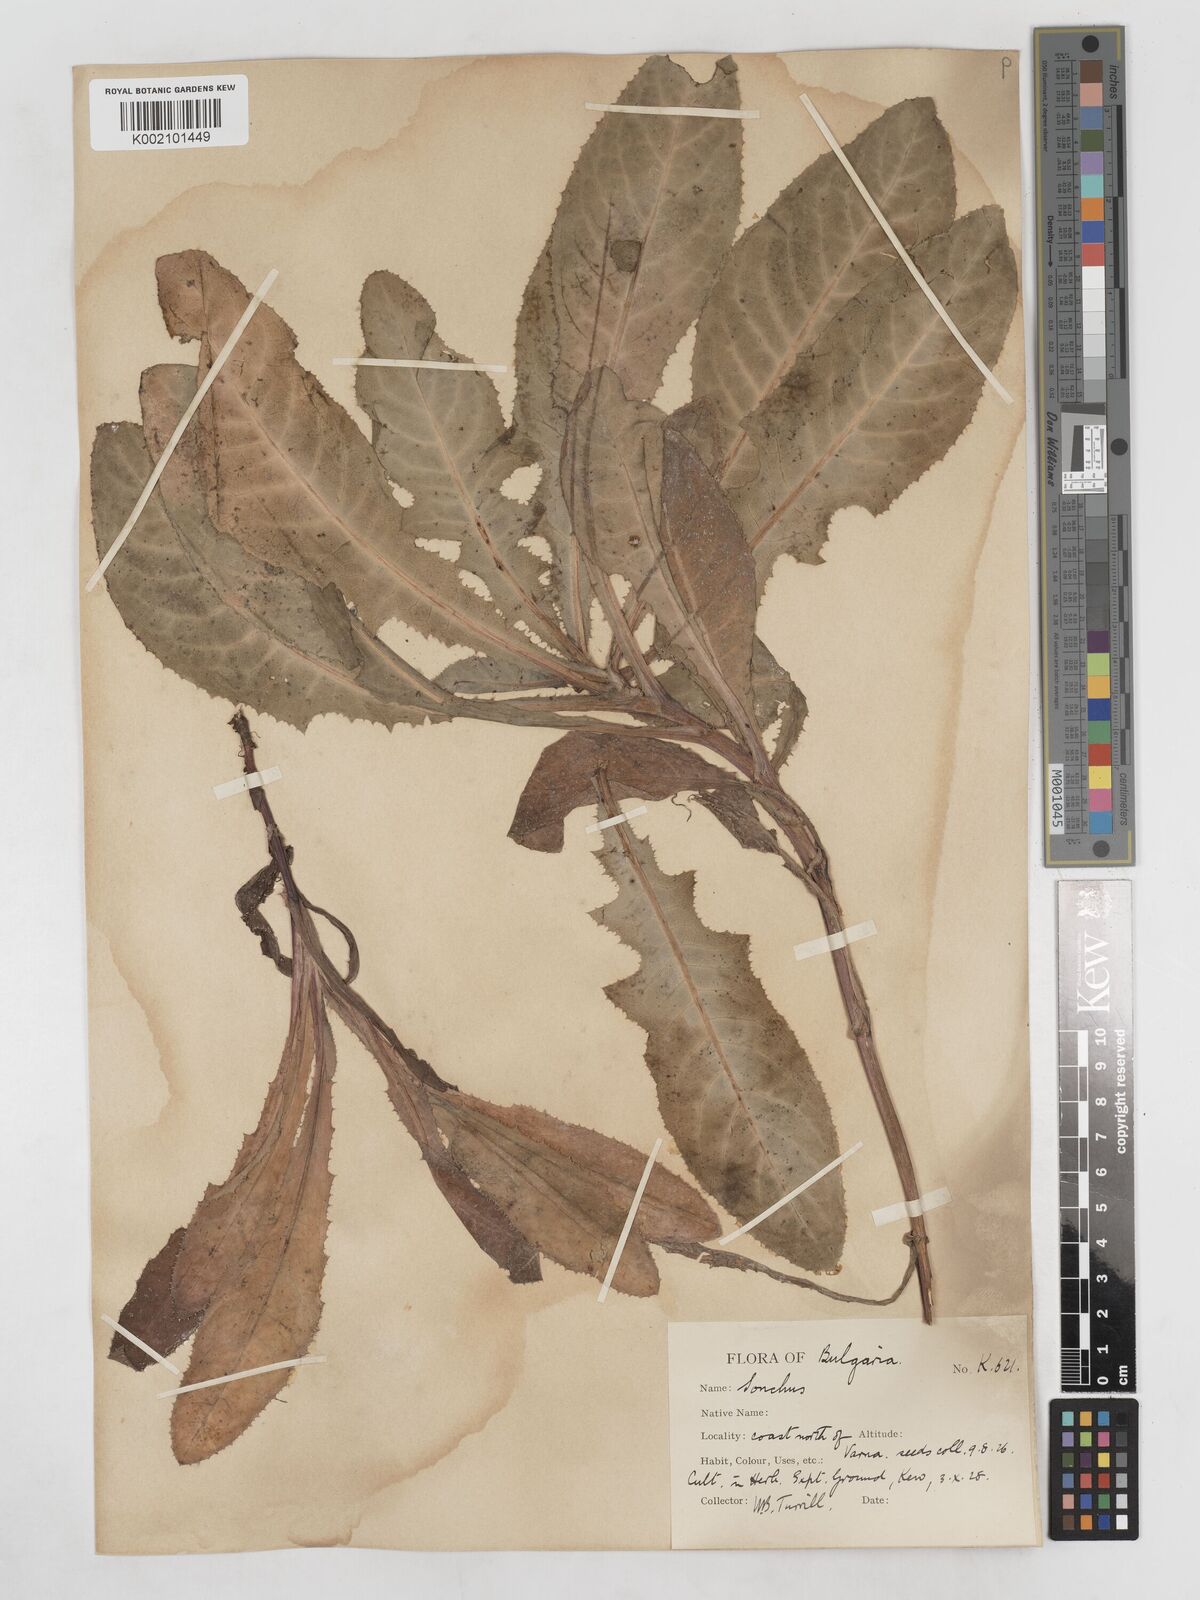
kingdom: Plantae
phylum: Tracheophyta
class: Magnoliopsida
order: Asterales
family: Asteraceae
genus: Sonchus
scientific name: Sonchus arvensis
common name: Perennial sow-thistle
